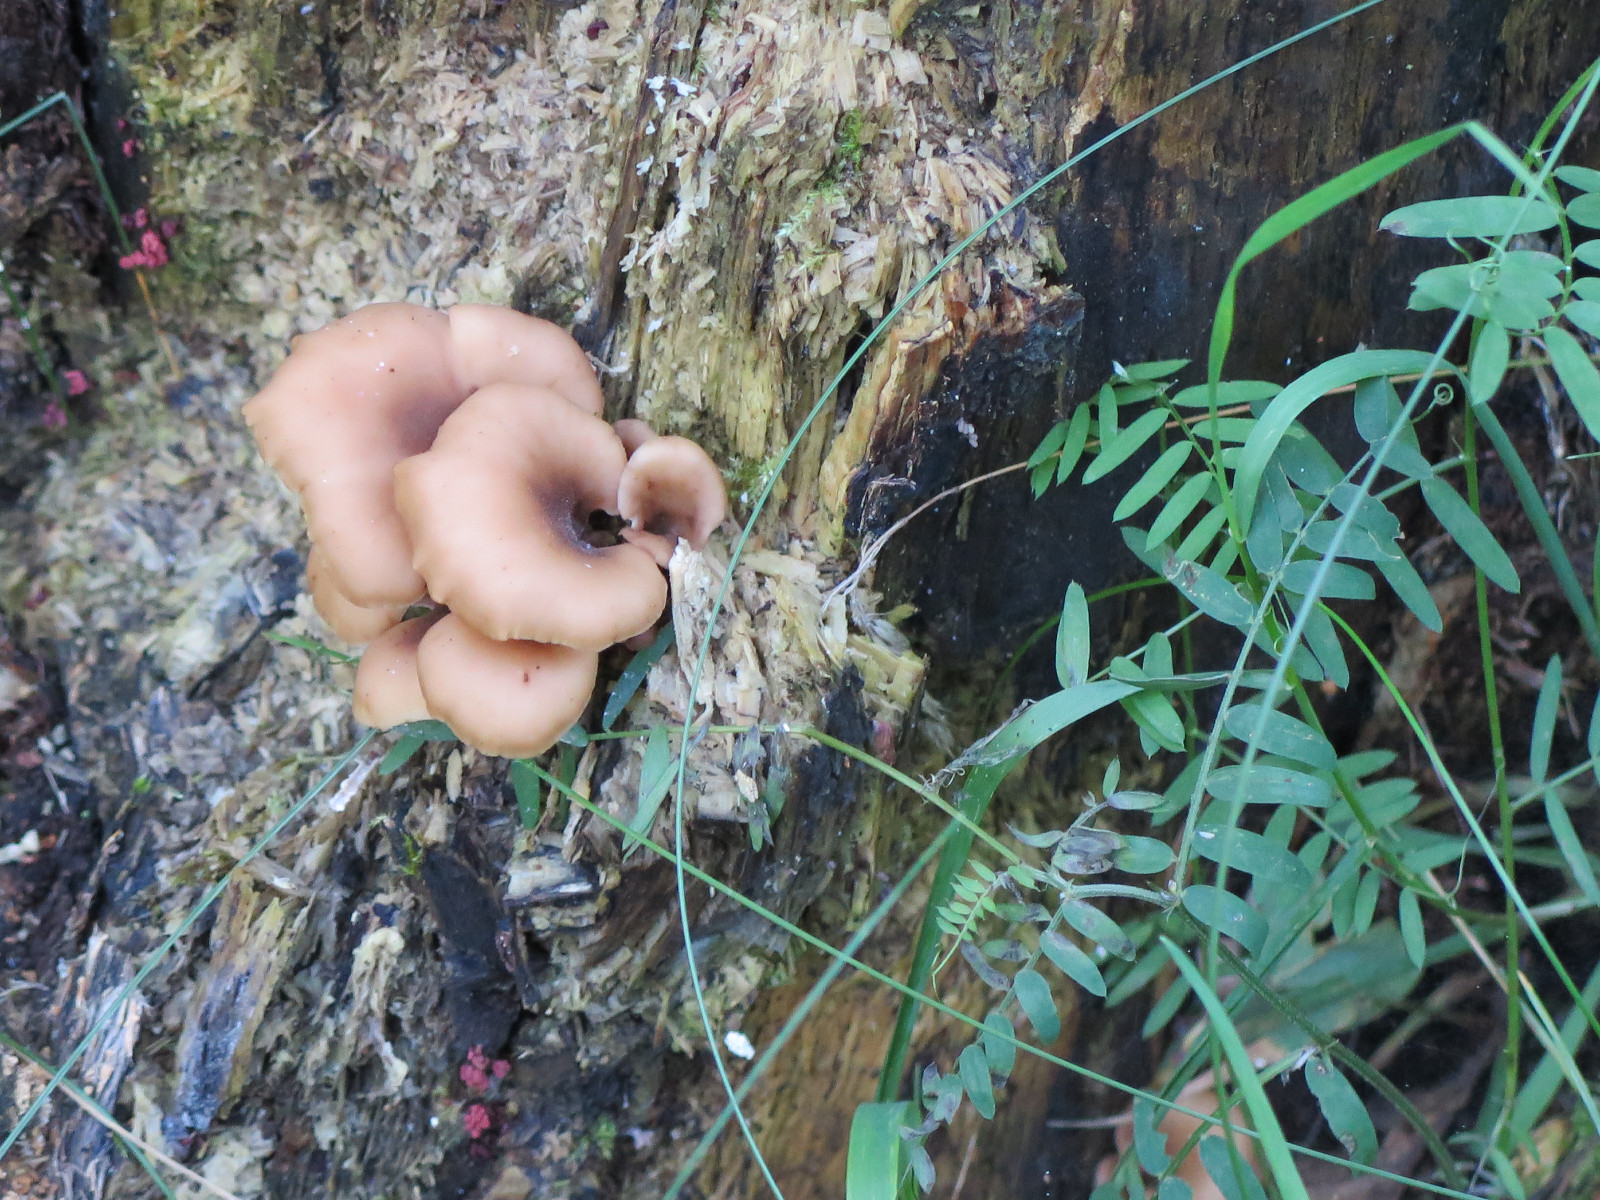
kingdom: Fungi
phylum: Basidiomycota
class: Agaricomycetes
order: Russulales
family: Auriscalpiaceae
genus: Lentinellus
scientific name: Lentinellus cochleatus
